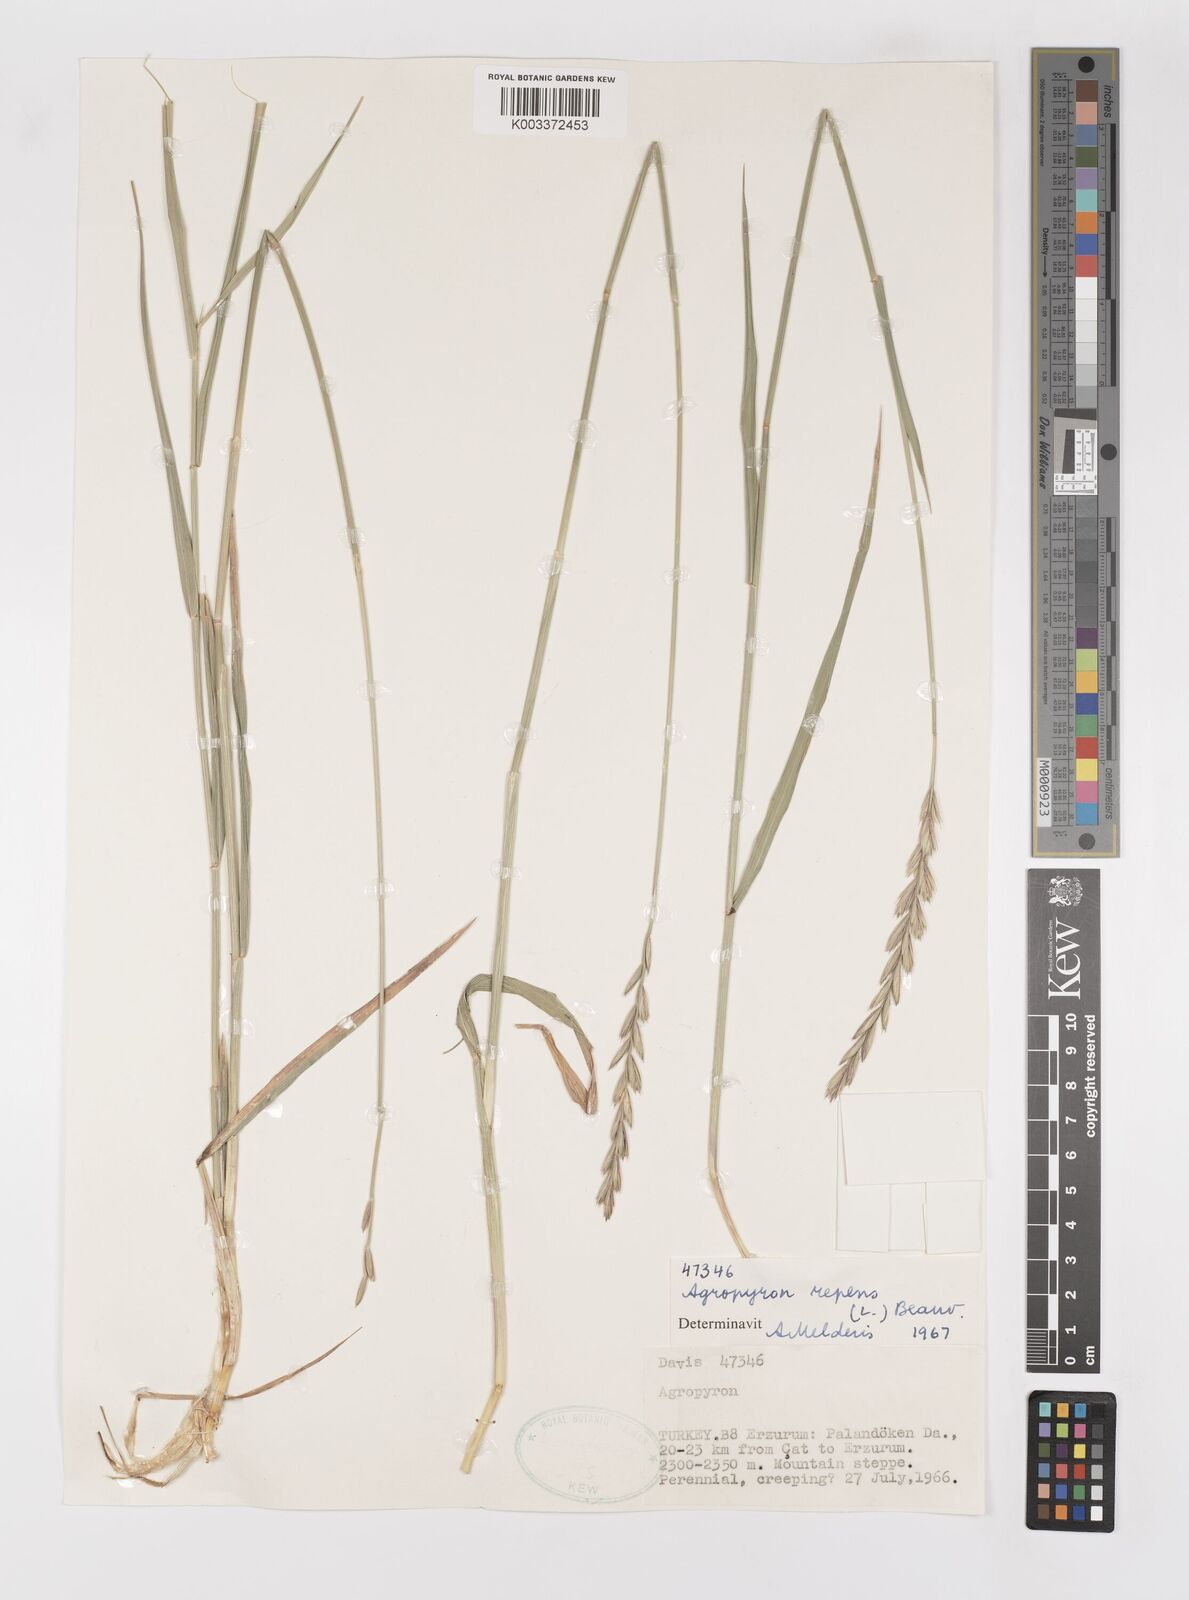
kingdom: Plantae
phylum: Tracheophyta
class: Liliopsida
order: Poales
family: Poaceae
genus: Elymus
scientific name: Elymus repens
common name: Quackgrass
